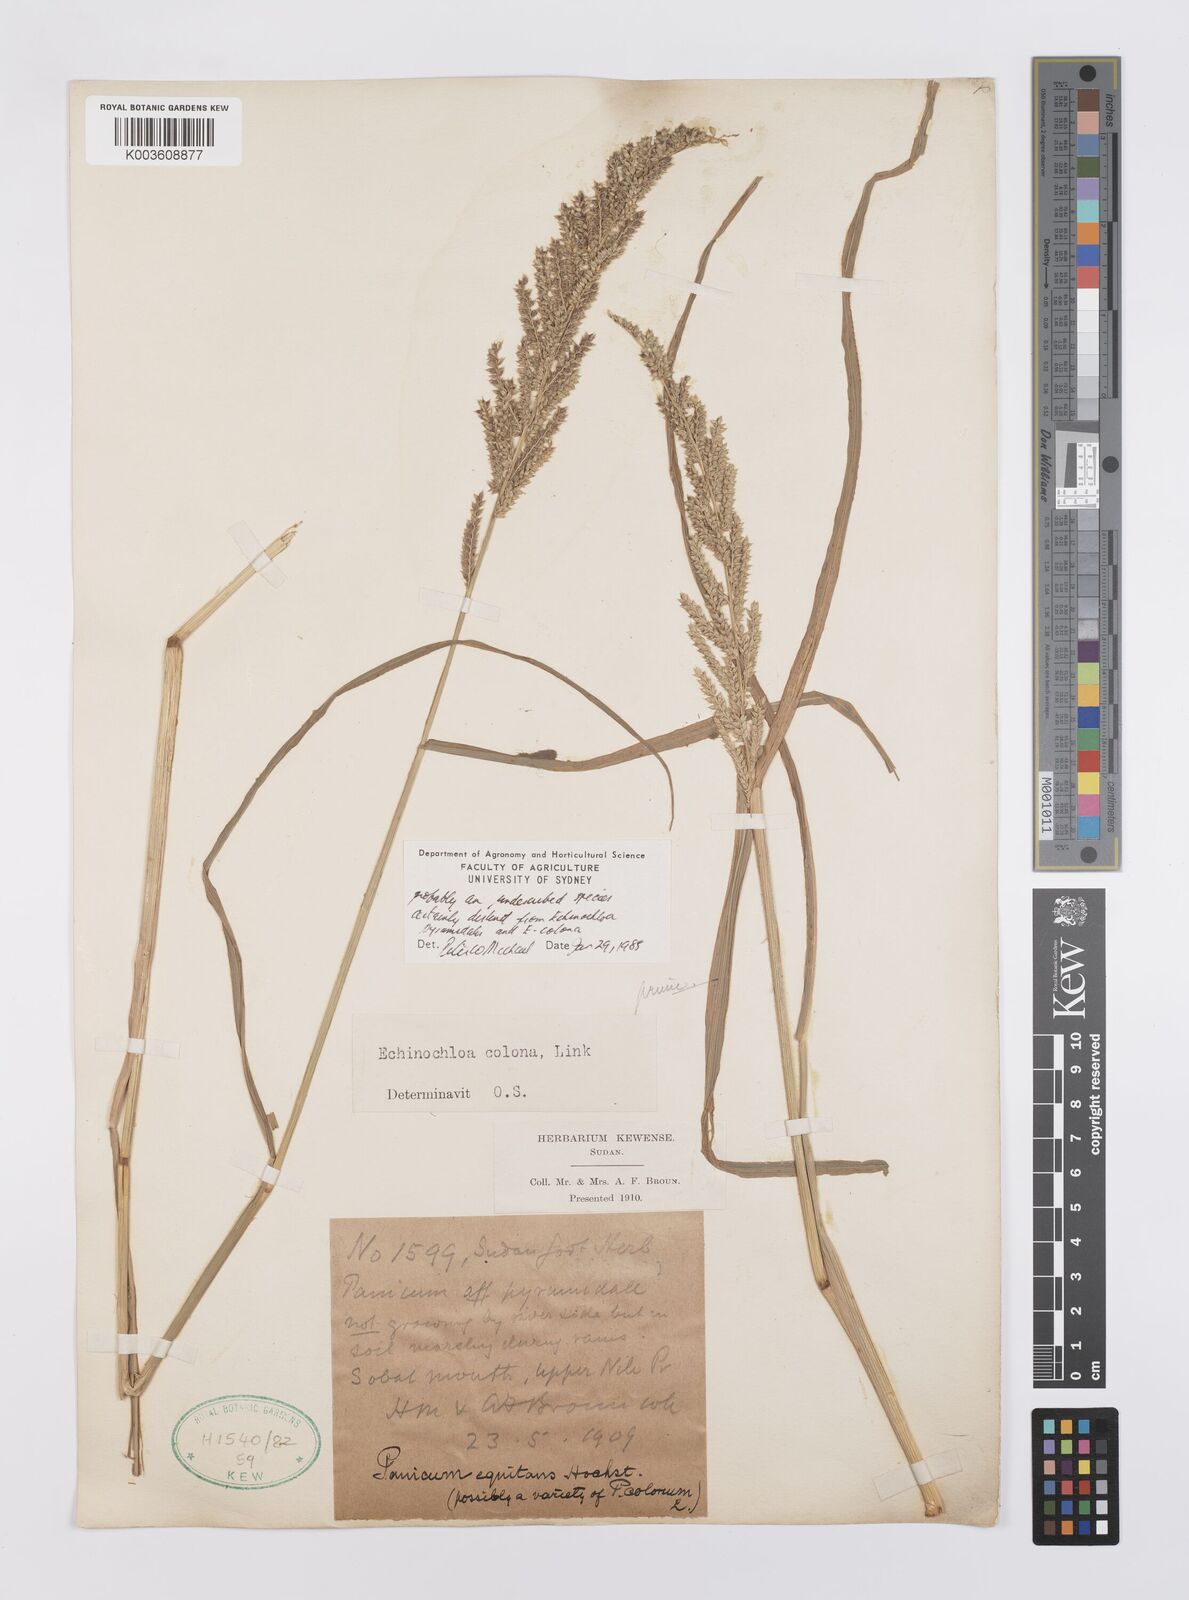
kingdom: Plantae
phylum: Tracheophyta
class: Liliopsida
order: Poales
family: Poaceae
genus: Echinochloa
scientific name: Echinochloa colonum
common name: Jungle rice
